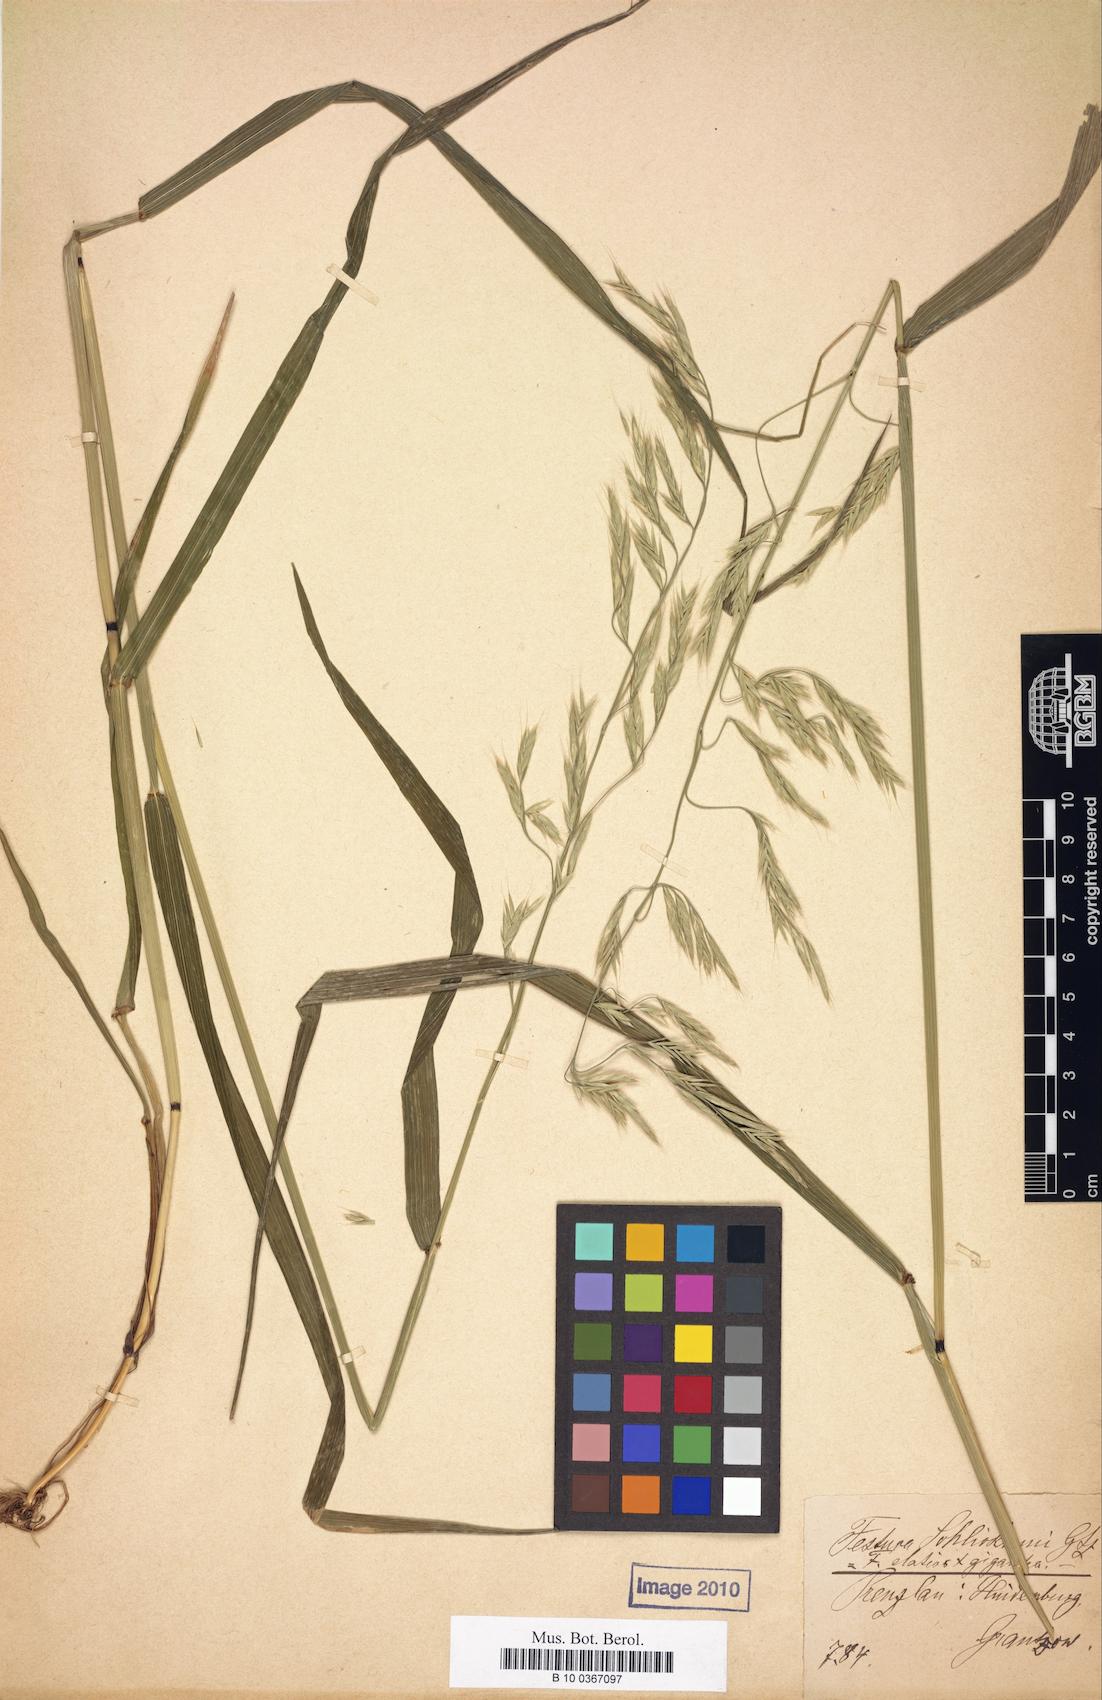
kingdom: Plantae
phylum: Tracheophyta
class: Liliopsida
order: Poales
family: Poaceae
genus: Lolium
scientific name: Lolium schlickumii
